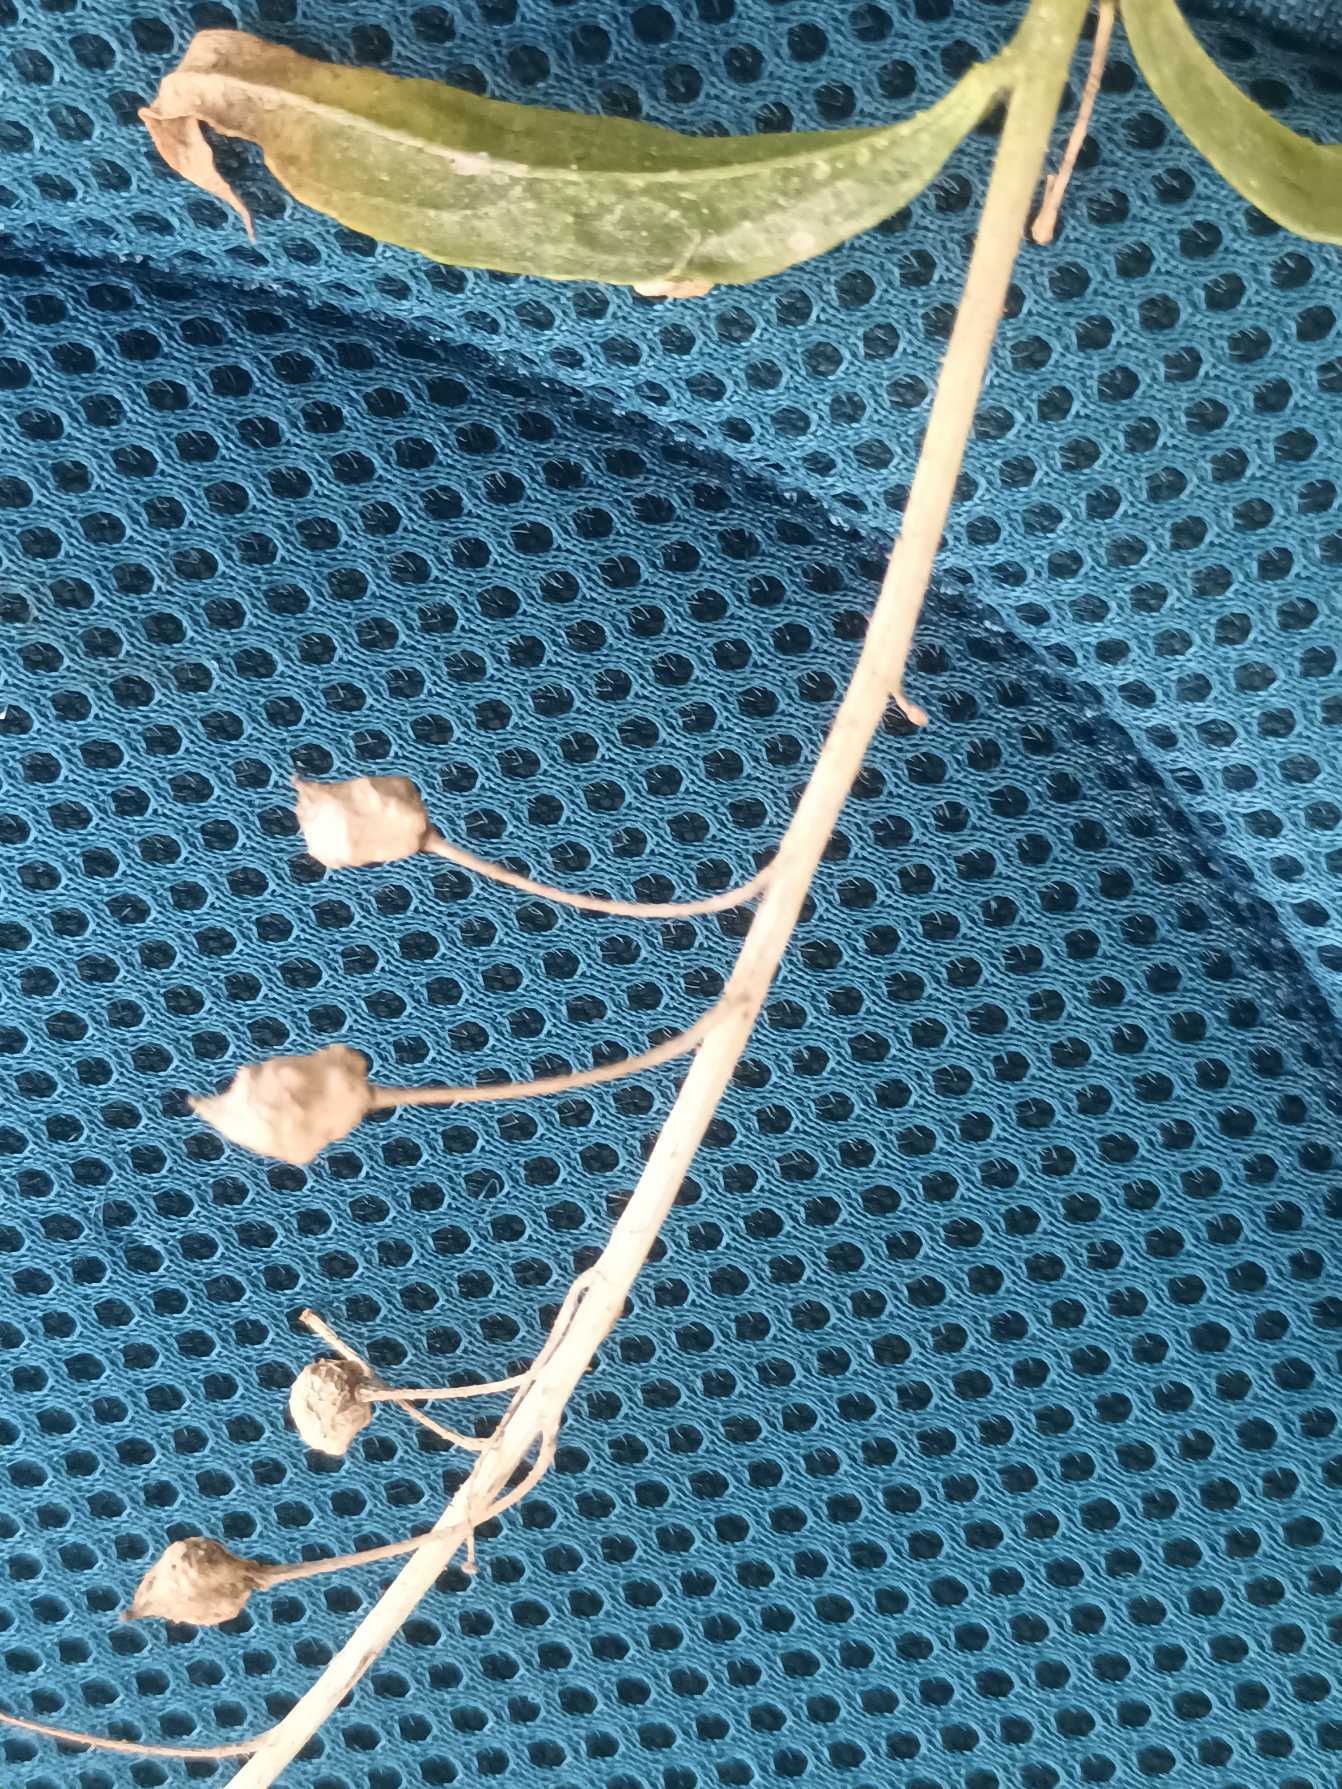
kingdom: Plantae
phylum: Tracheophyta
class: Magnoliopsida
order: Brassicales
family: Brassicaceae
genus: Bunias
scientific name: Bunias orientalis
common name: Takkeklap
